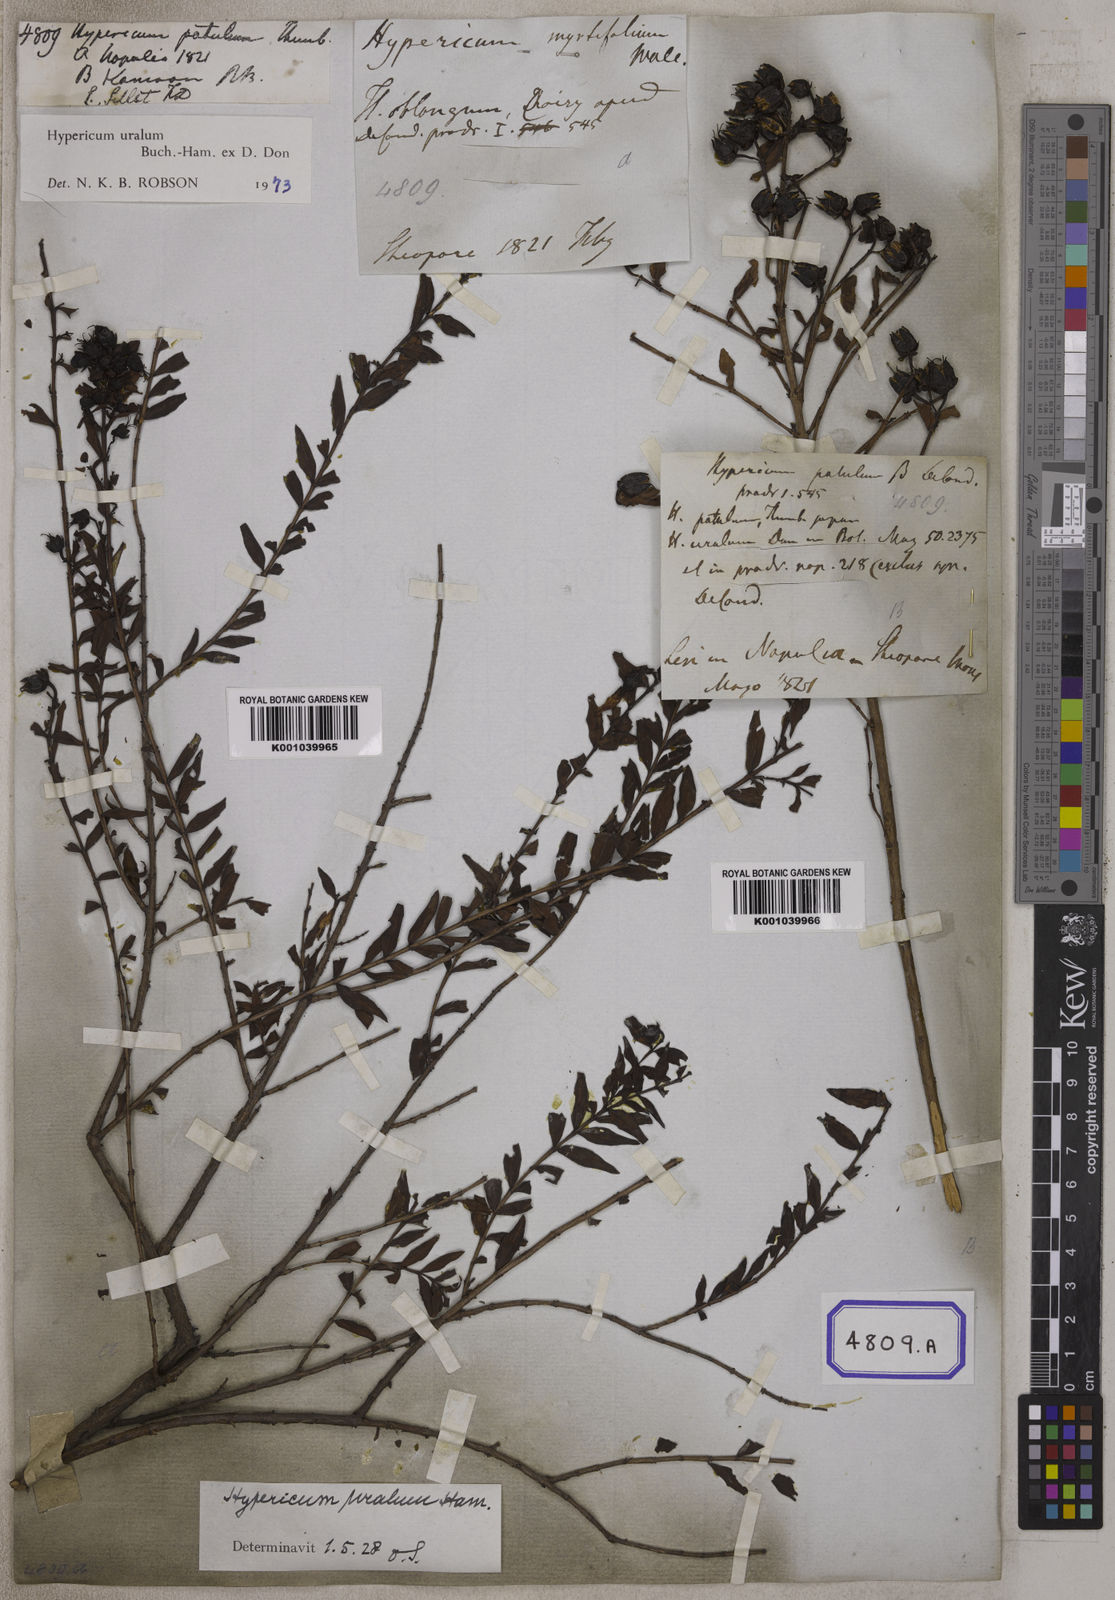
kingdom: Plantae
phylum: Tracheophyta
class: Magnoliopsida
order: Malpighiales
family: Hypericaceae
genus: Hypericum
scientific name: Hypericum patulum
